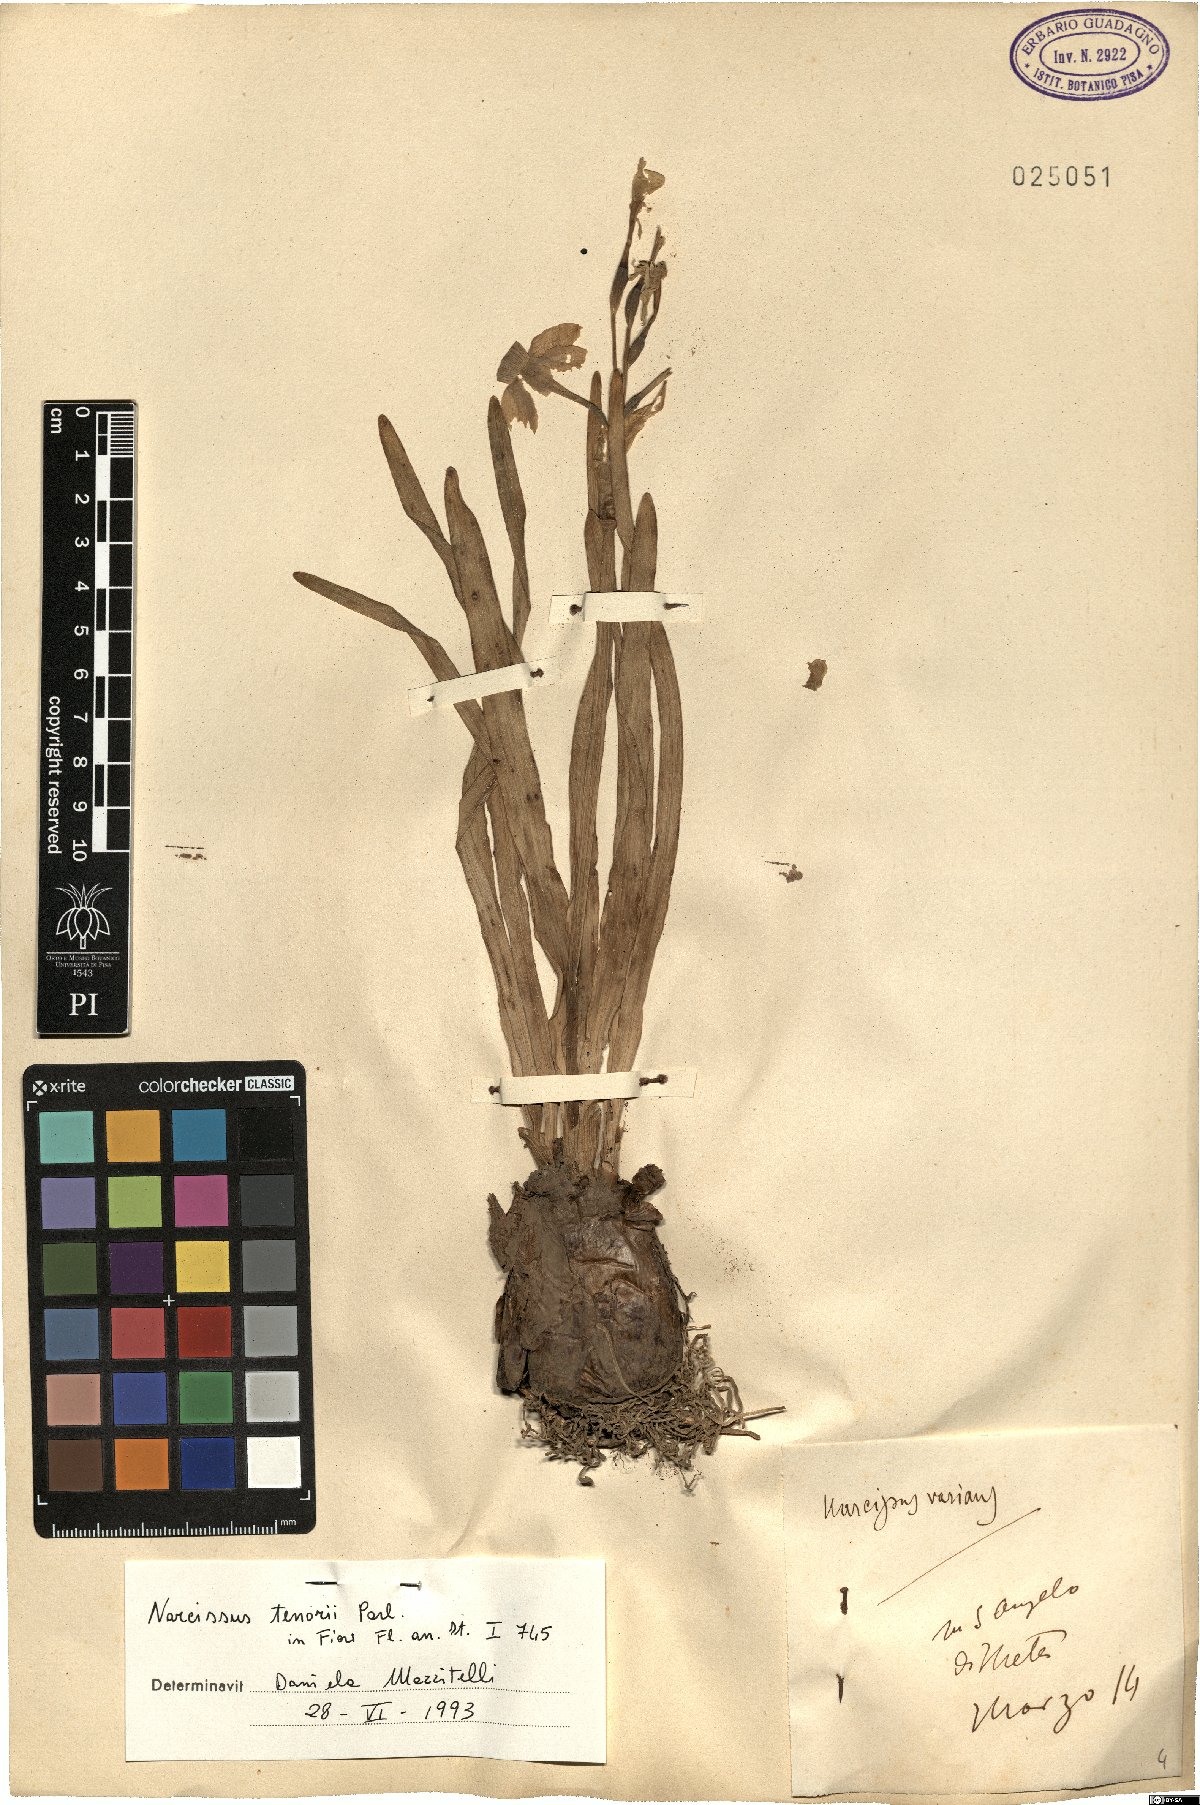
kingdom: Plantae
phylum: Tracheophyta
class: Liliopsida
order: Asparagales
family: Amaryllidaceae
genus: Narcissus
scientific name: Narcissus tazetta
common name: Bunch-flowered daffodil
